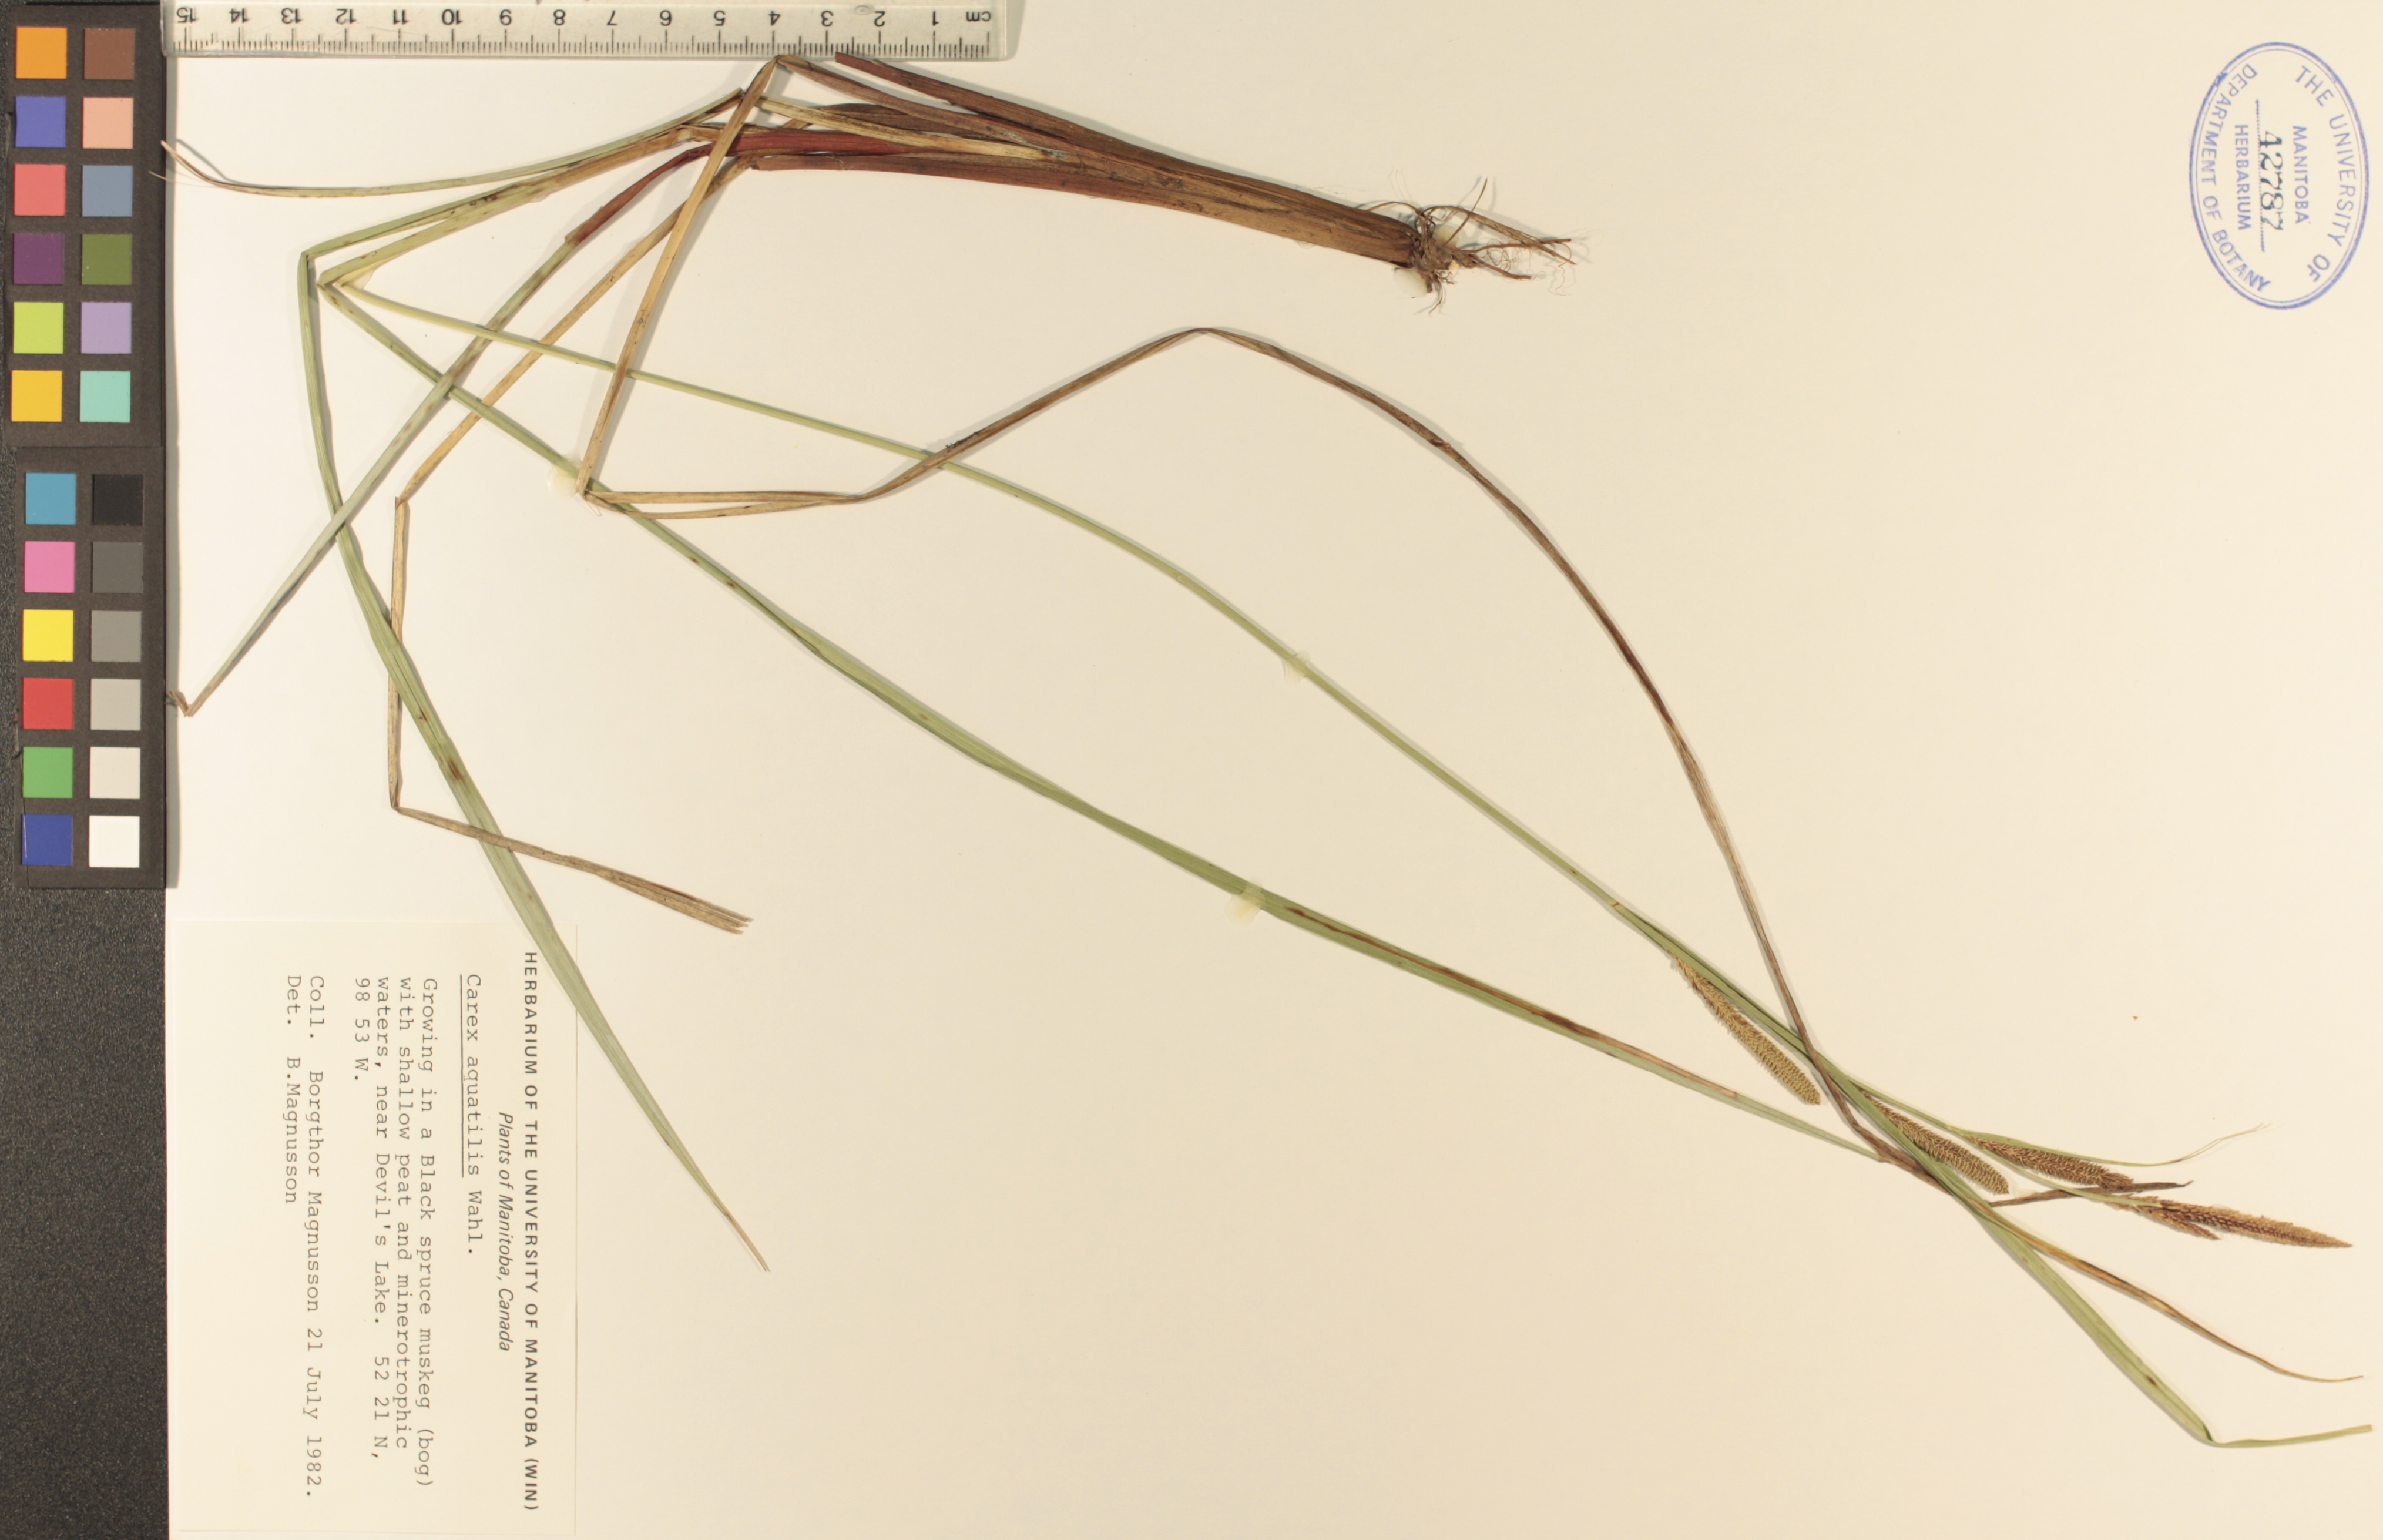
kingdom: Plantae
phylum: Tracheophyta
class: Liliopsida
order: Poales
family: Cyperaceae
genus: Carex
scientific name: Carex aquatilis
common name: Water sedge
